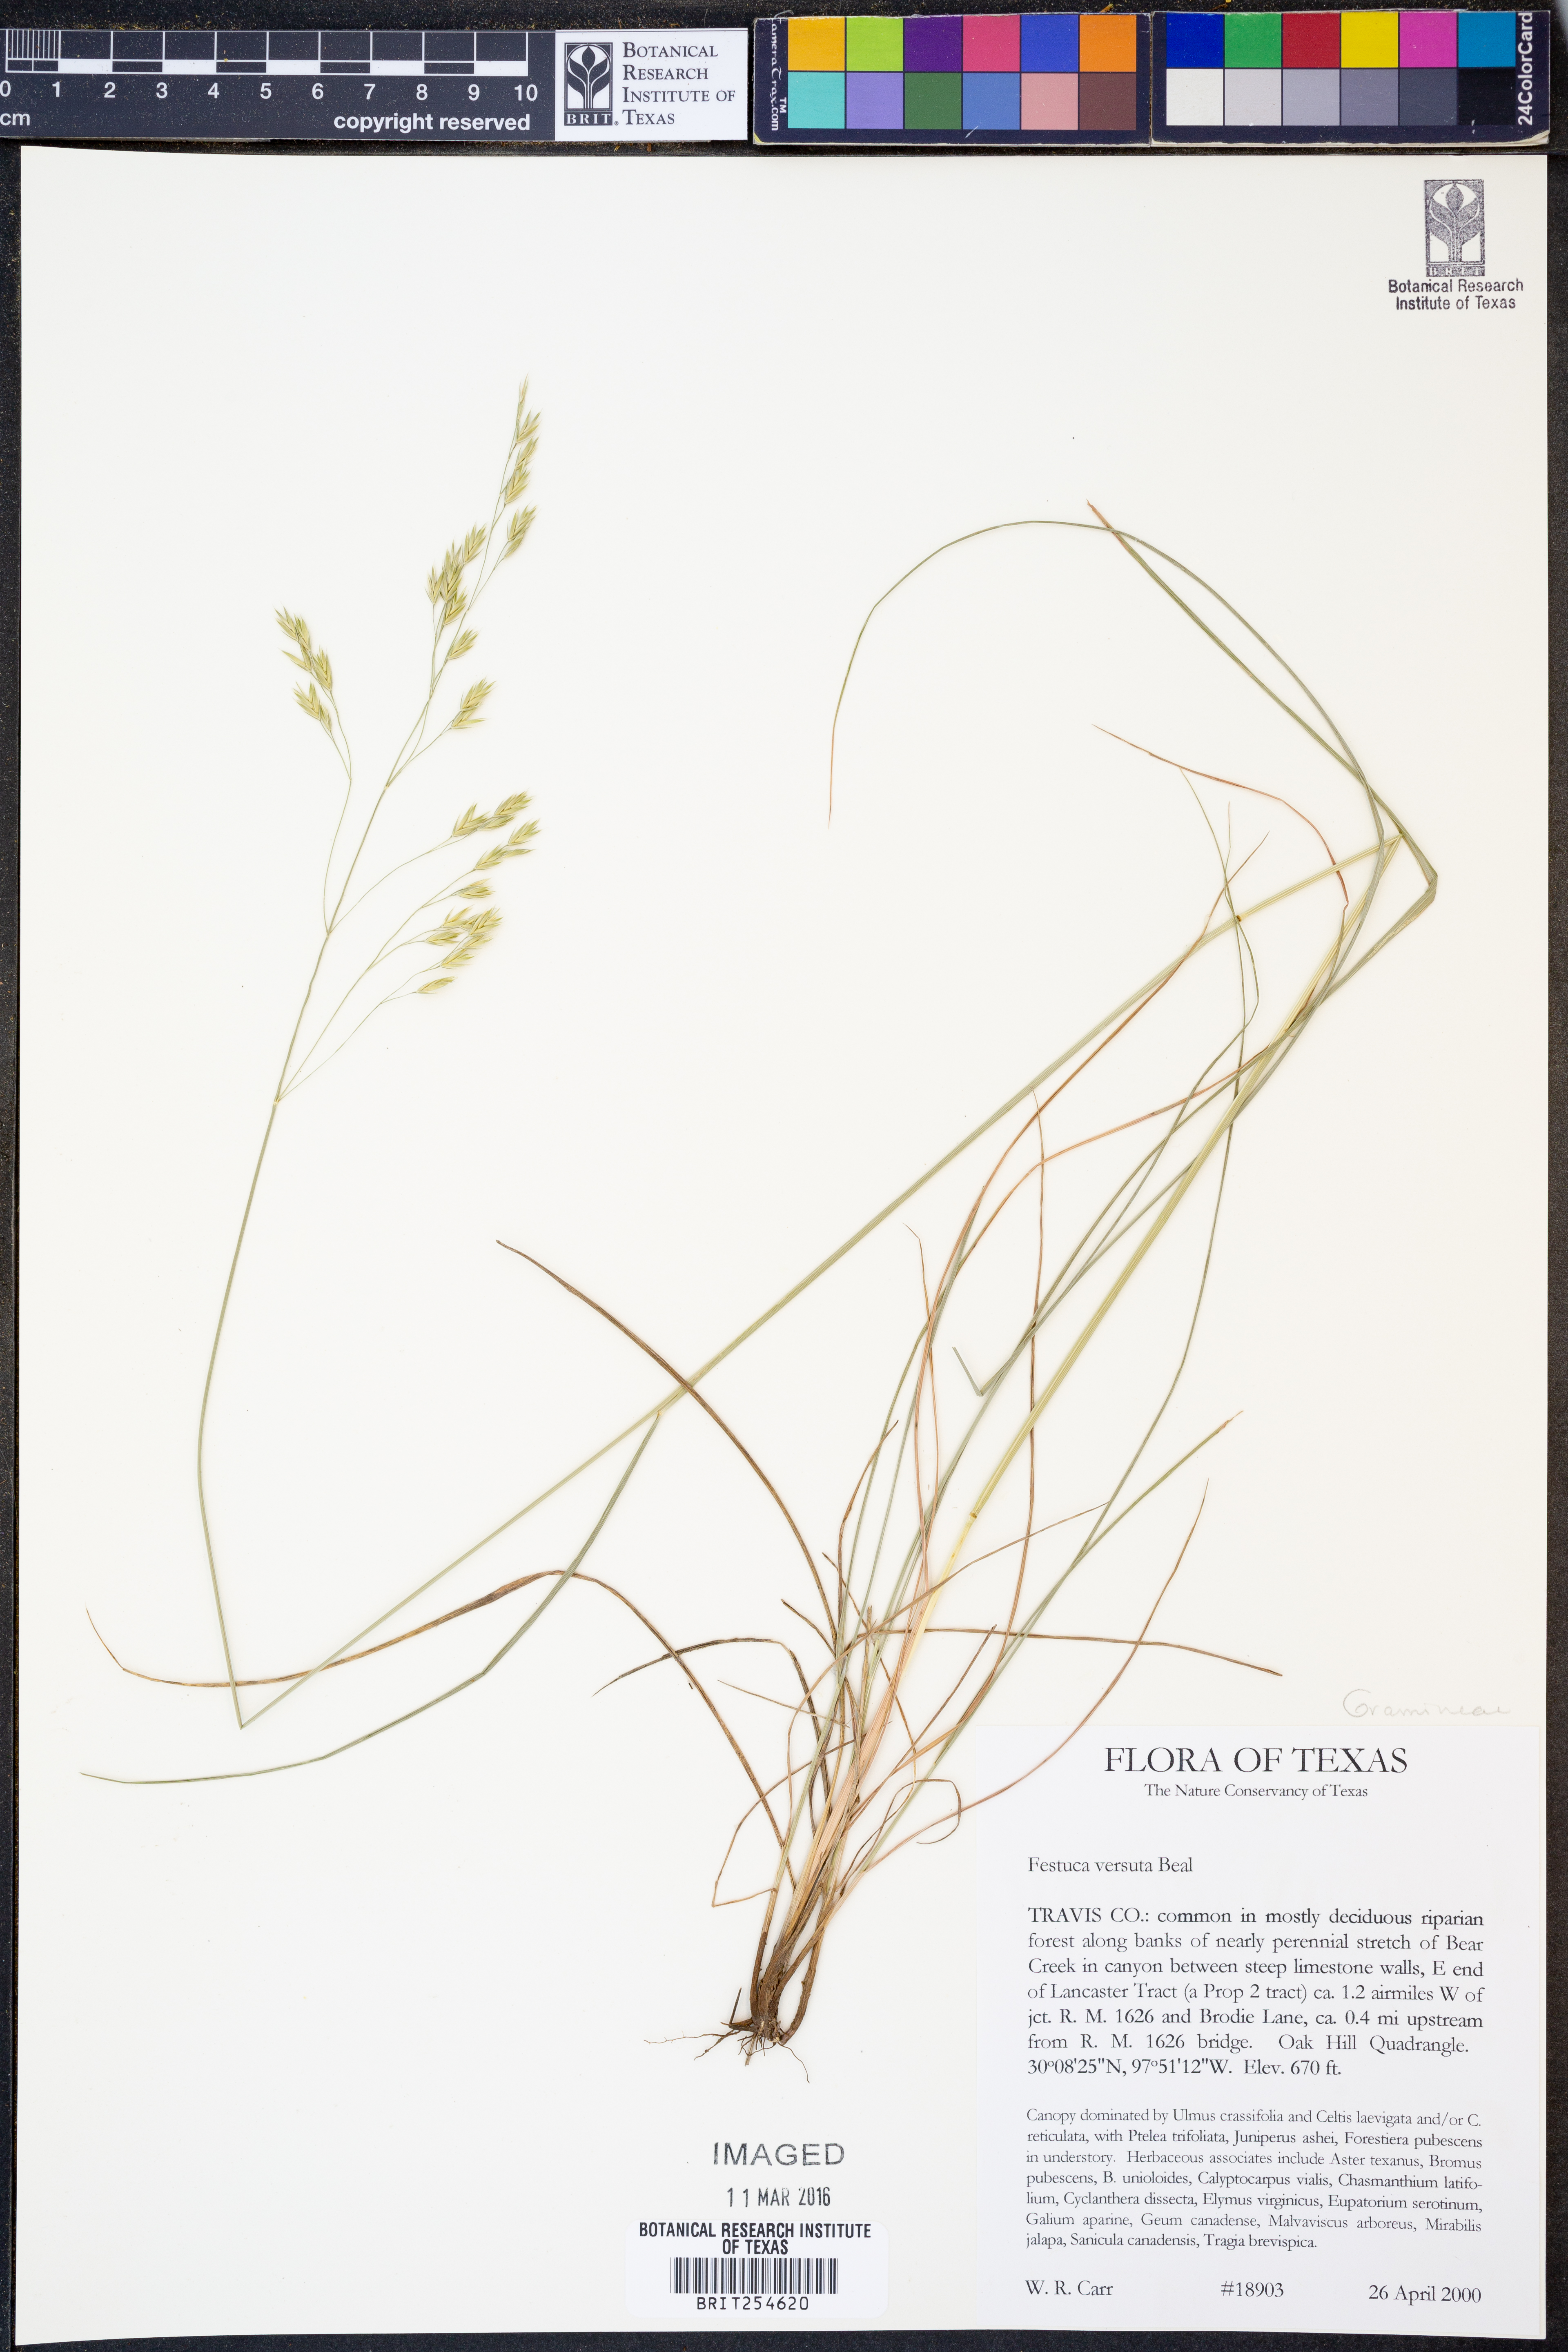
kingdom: Plantae
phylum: Tracheophyta
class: Liliopsida
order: Poales
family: Poaceae
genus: Festuca
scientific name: Festuca versuta
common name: Texas fescue
